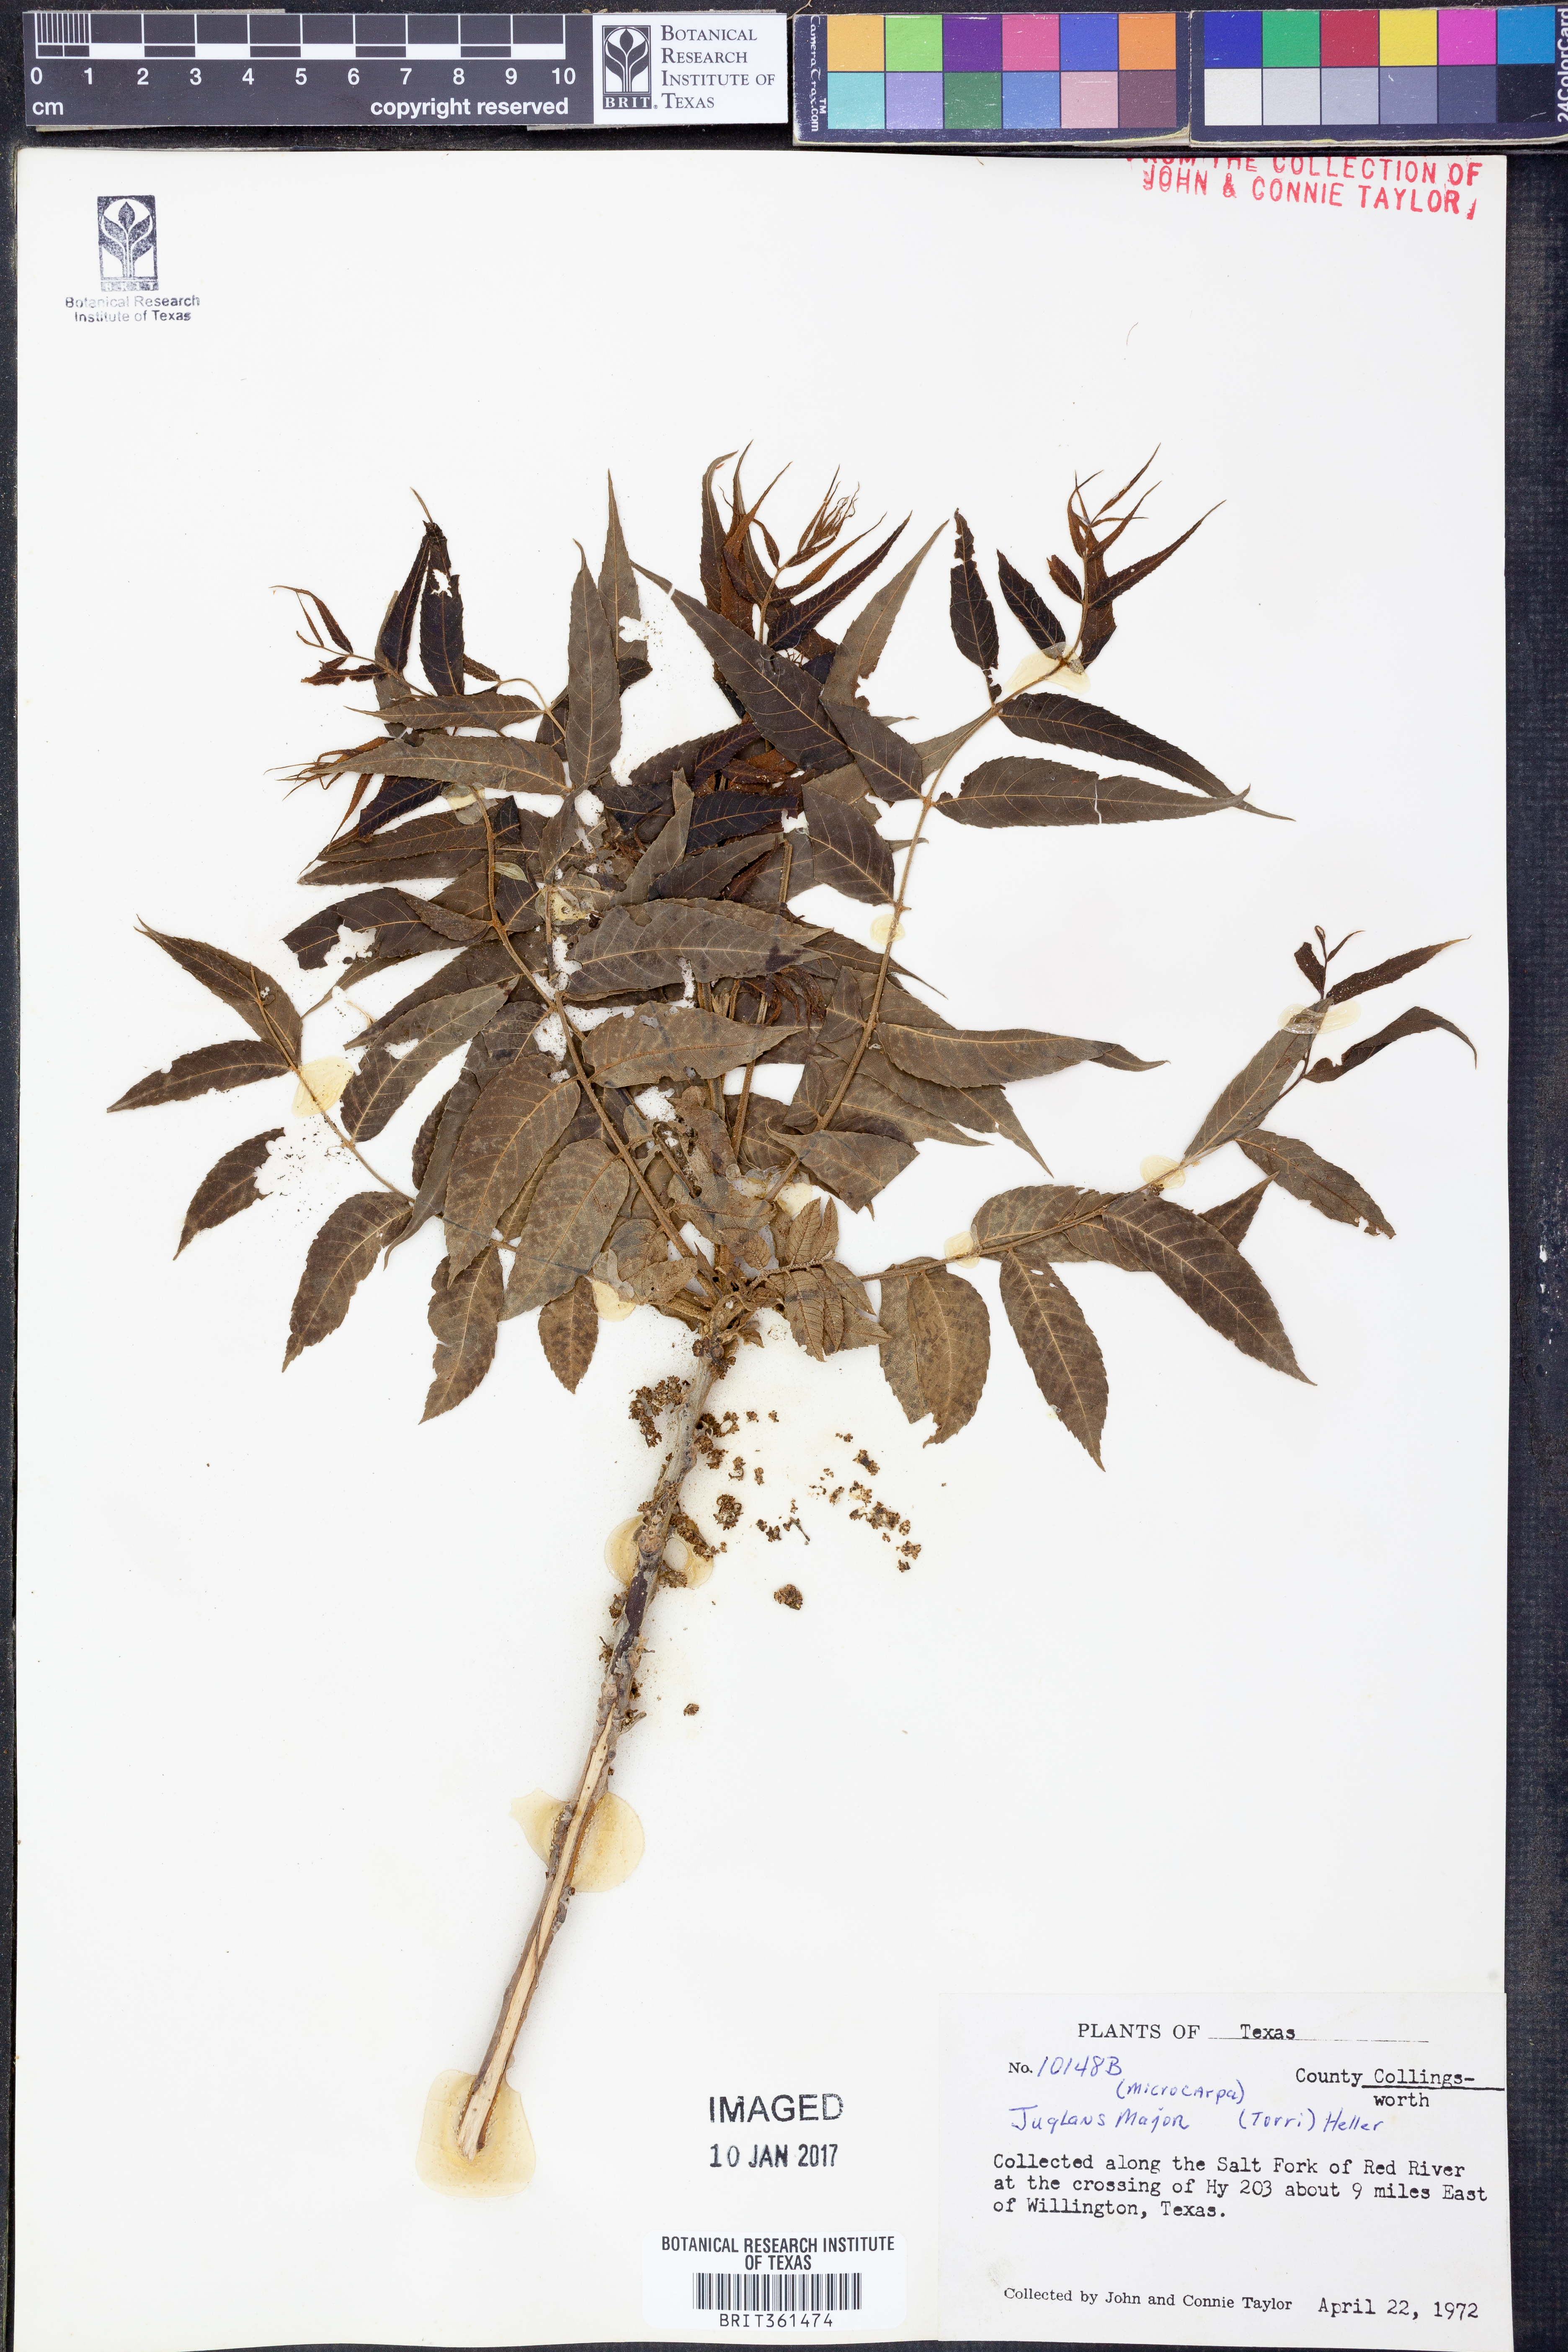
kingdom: Plantae
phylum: Tracheophyta
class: Magnoliopsida
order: Fagales
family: Juglandaceae
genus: Juglans
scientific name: Juglans major
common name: Arizona walnut
